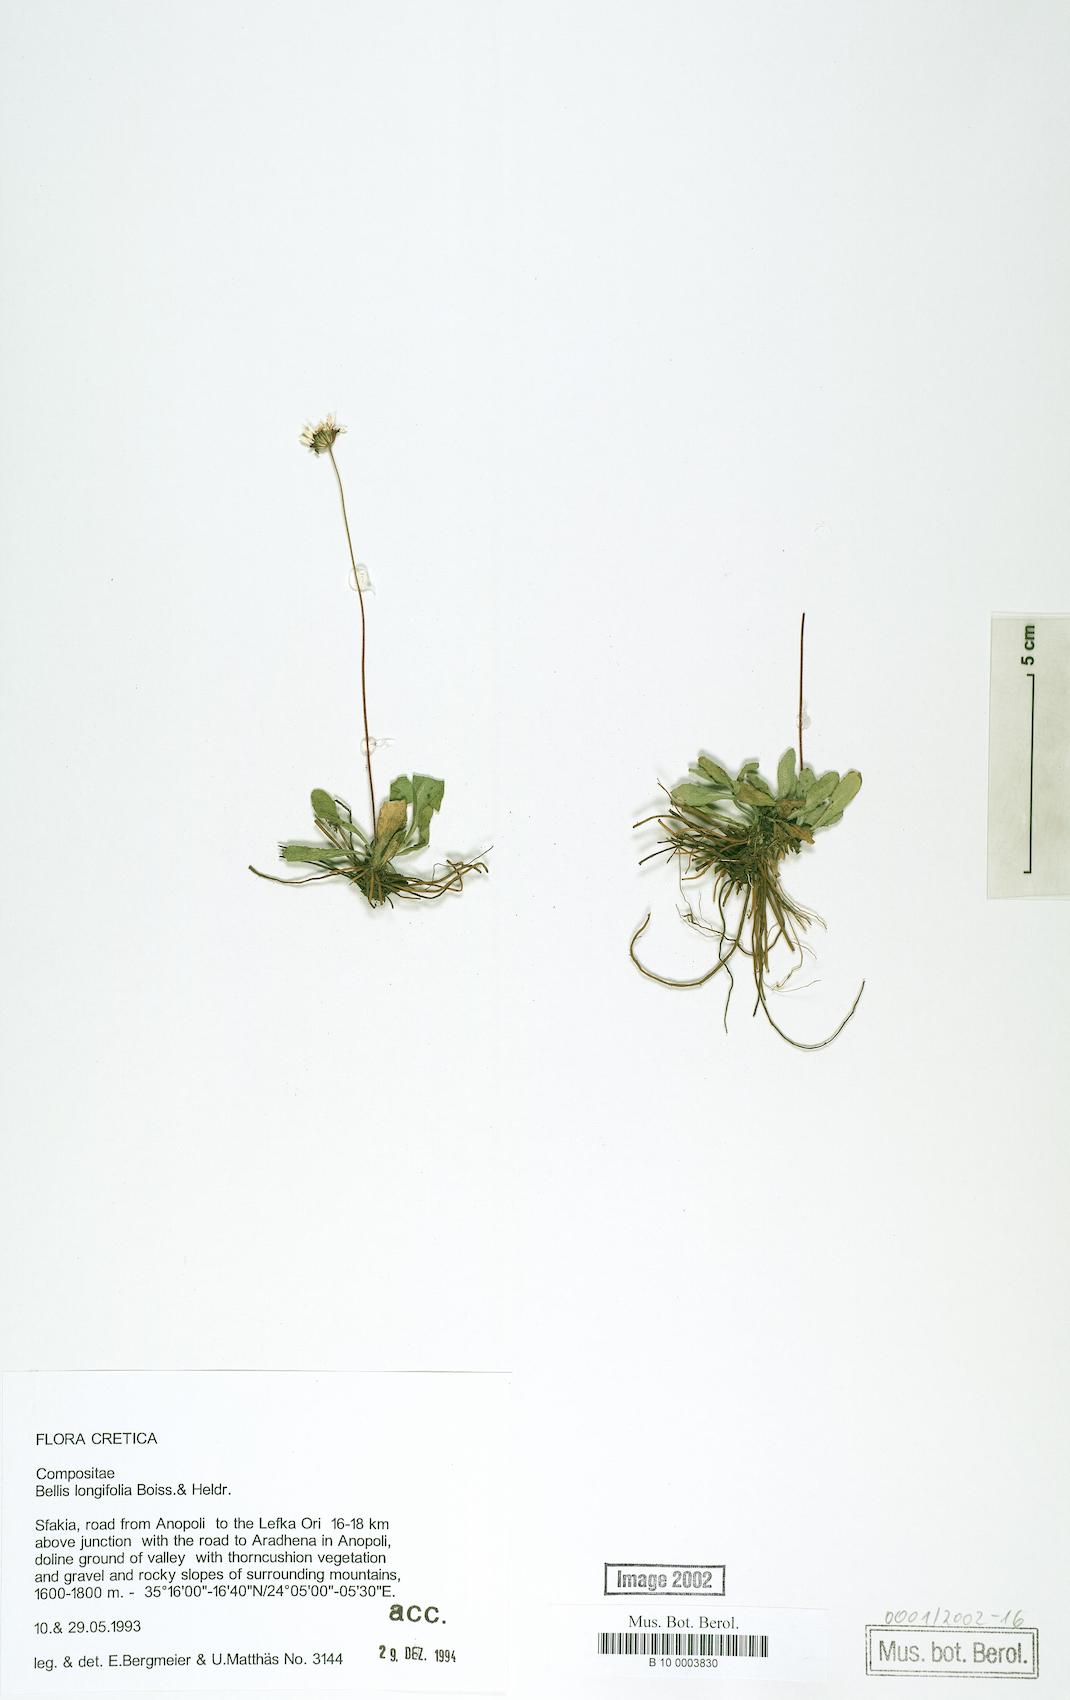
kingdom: Plantae
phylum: Tracheophyta
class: Magnoliopsida
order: Asterales
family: Asteraceae
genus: Bellis
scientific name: Bellis longifolia
